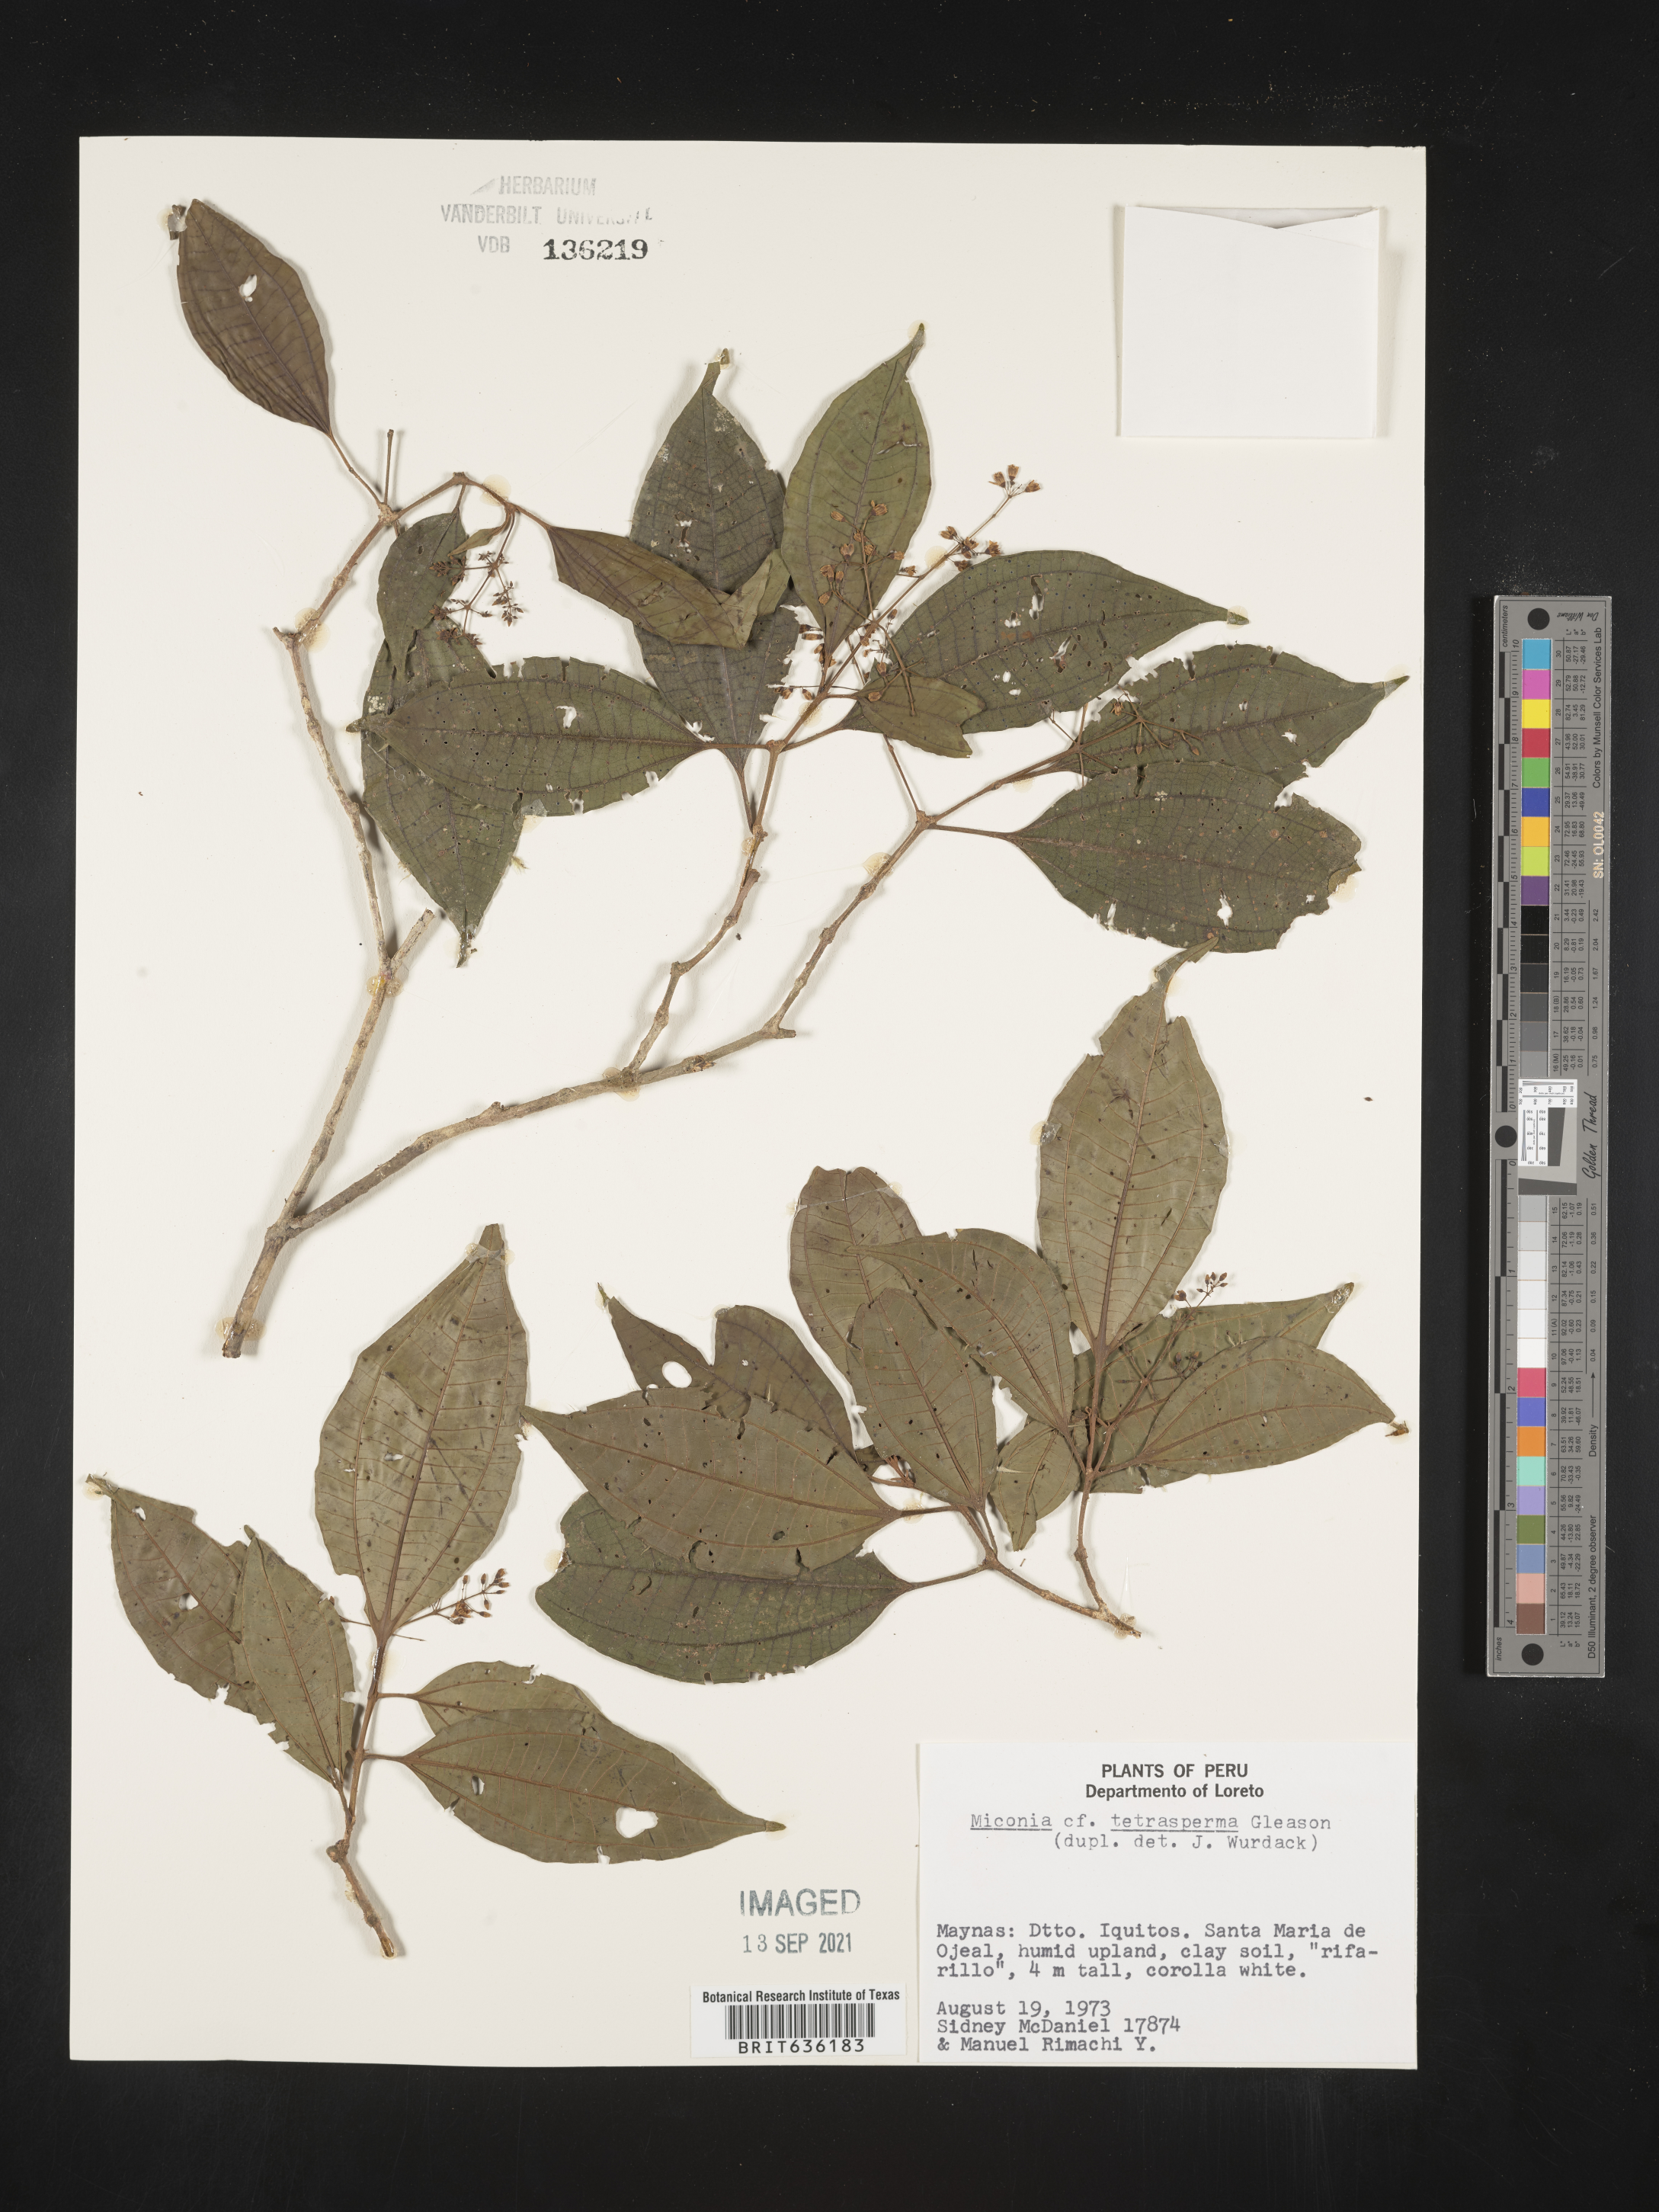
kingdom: Plantae
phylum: Tracheophyta
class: Magnoliopsida
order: Myrtales
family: Melastomataceae
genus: Miconia
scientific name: Miconia
